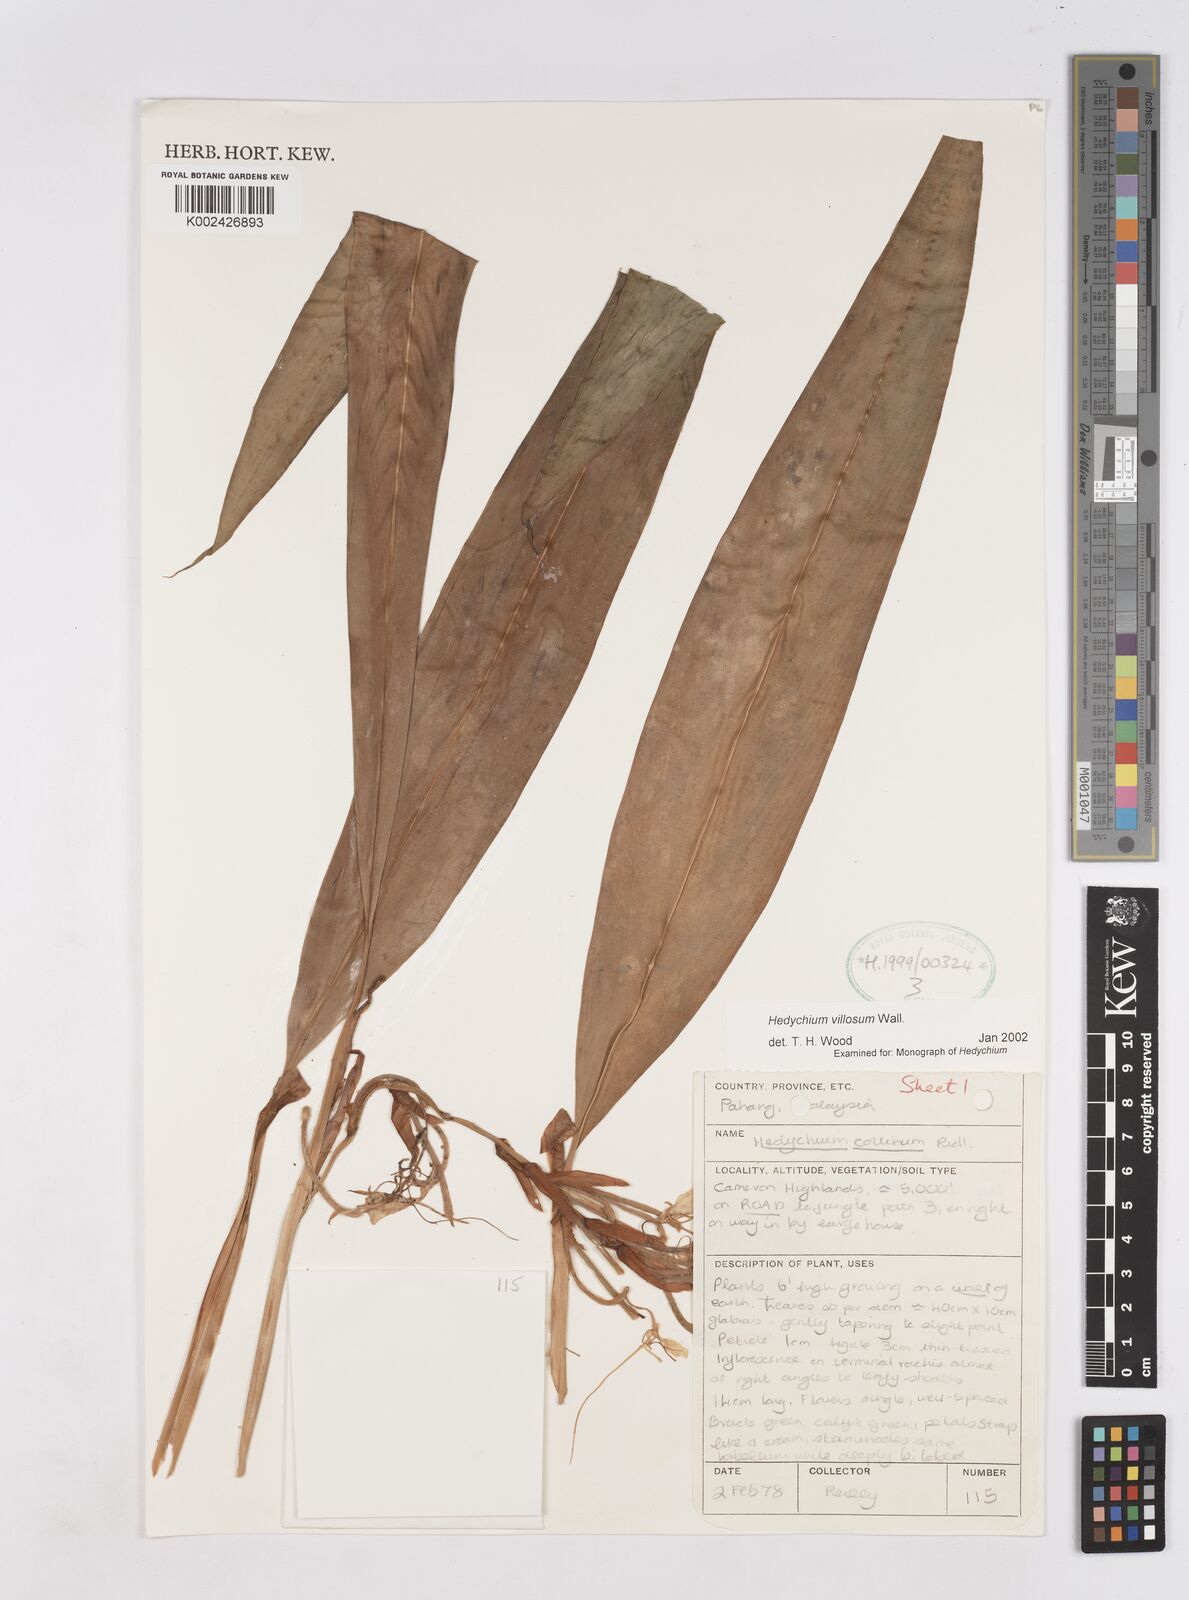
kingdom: Plantae
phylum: Tracheophyta
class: Liliopsida
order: Zingiberales
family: Zingiberaceae
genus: Hedychium
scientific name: Hedychium villosum
